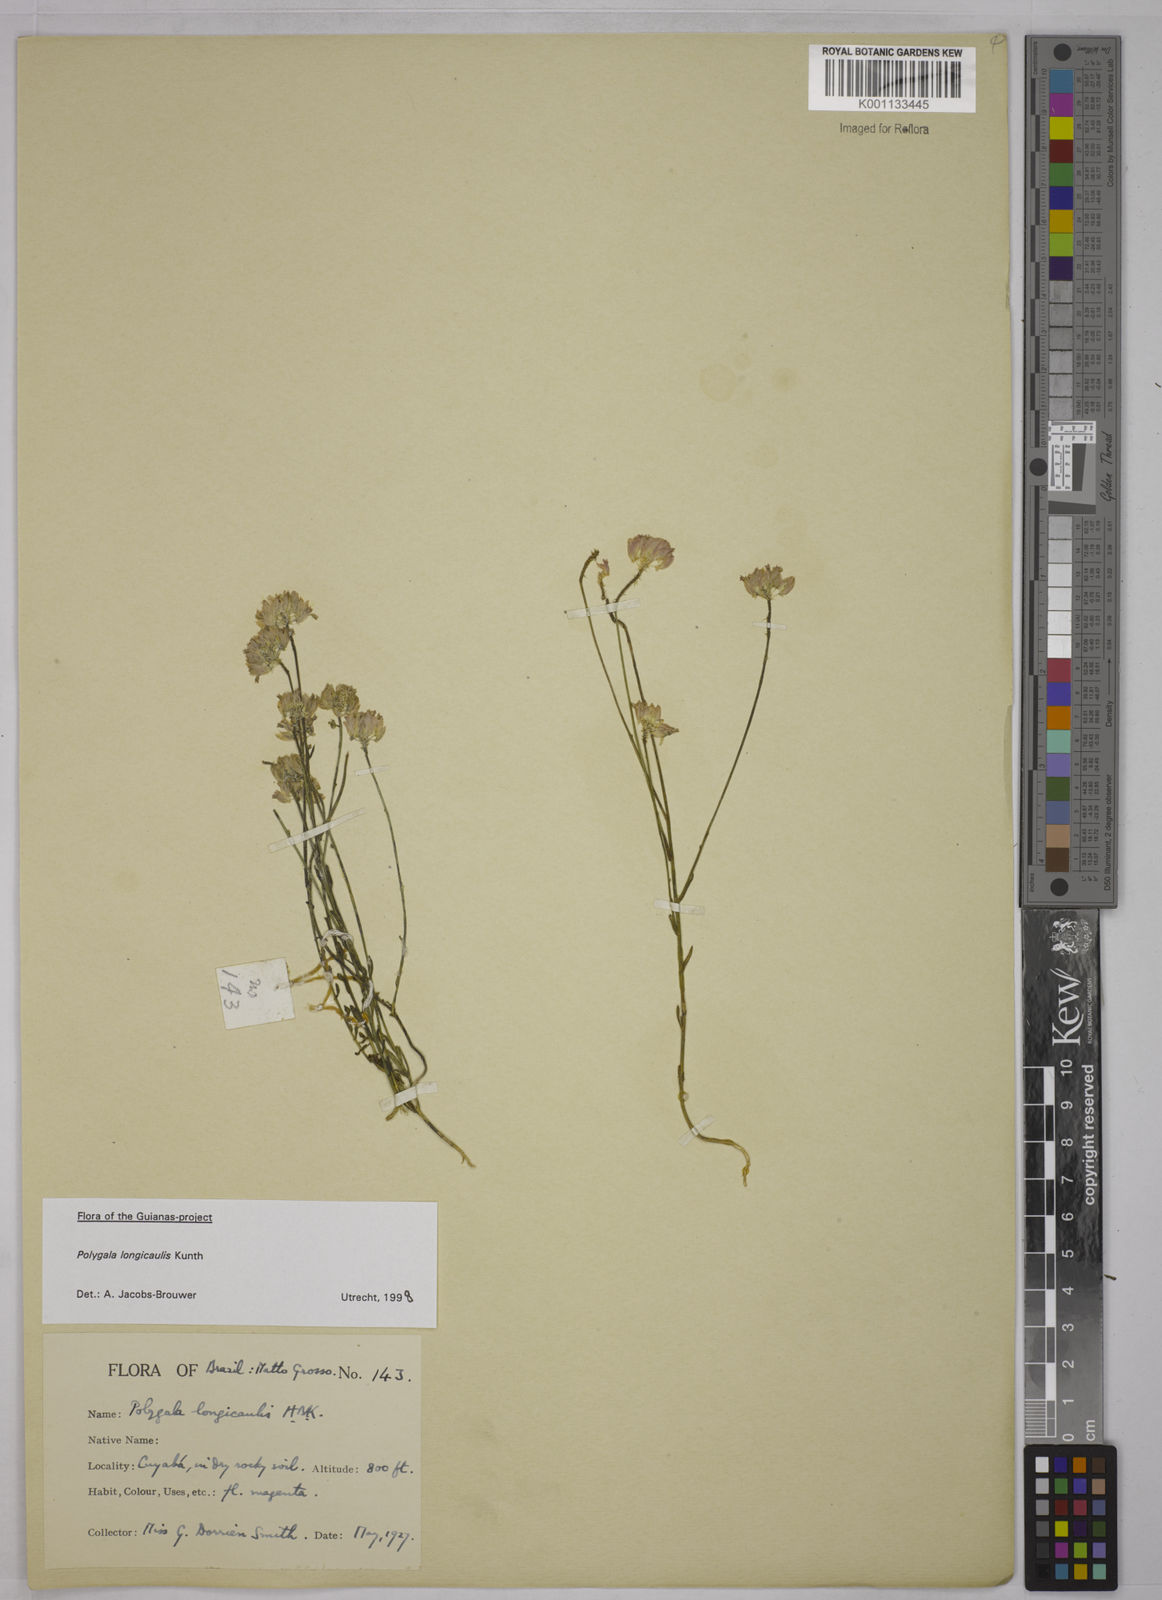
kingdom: Plantae
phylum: Tracheophyta
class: Magnoliopsida
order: Fabales
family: Polygalaceae
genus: Polygala
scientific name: Polygala longicaulis
